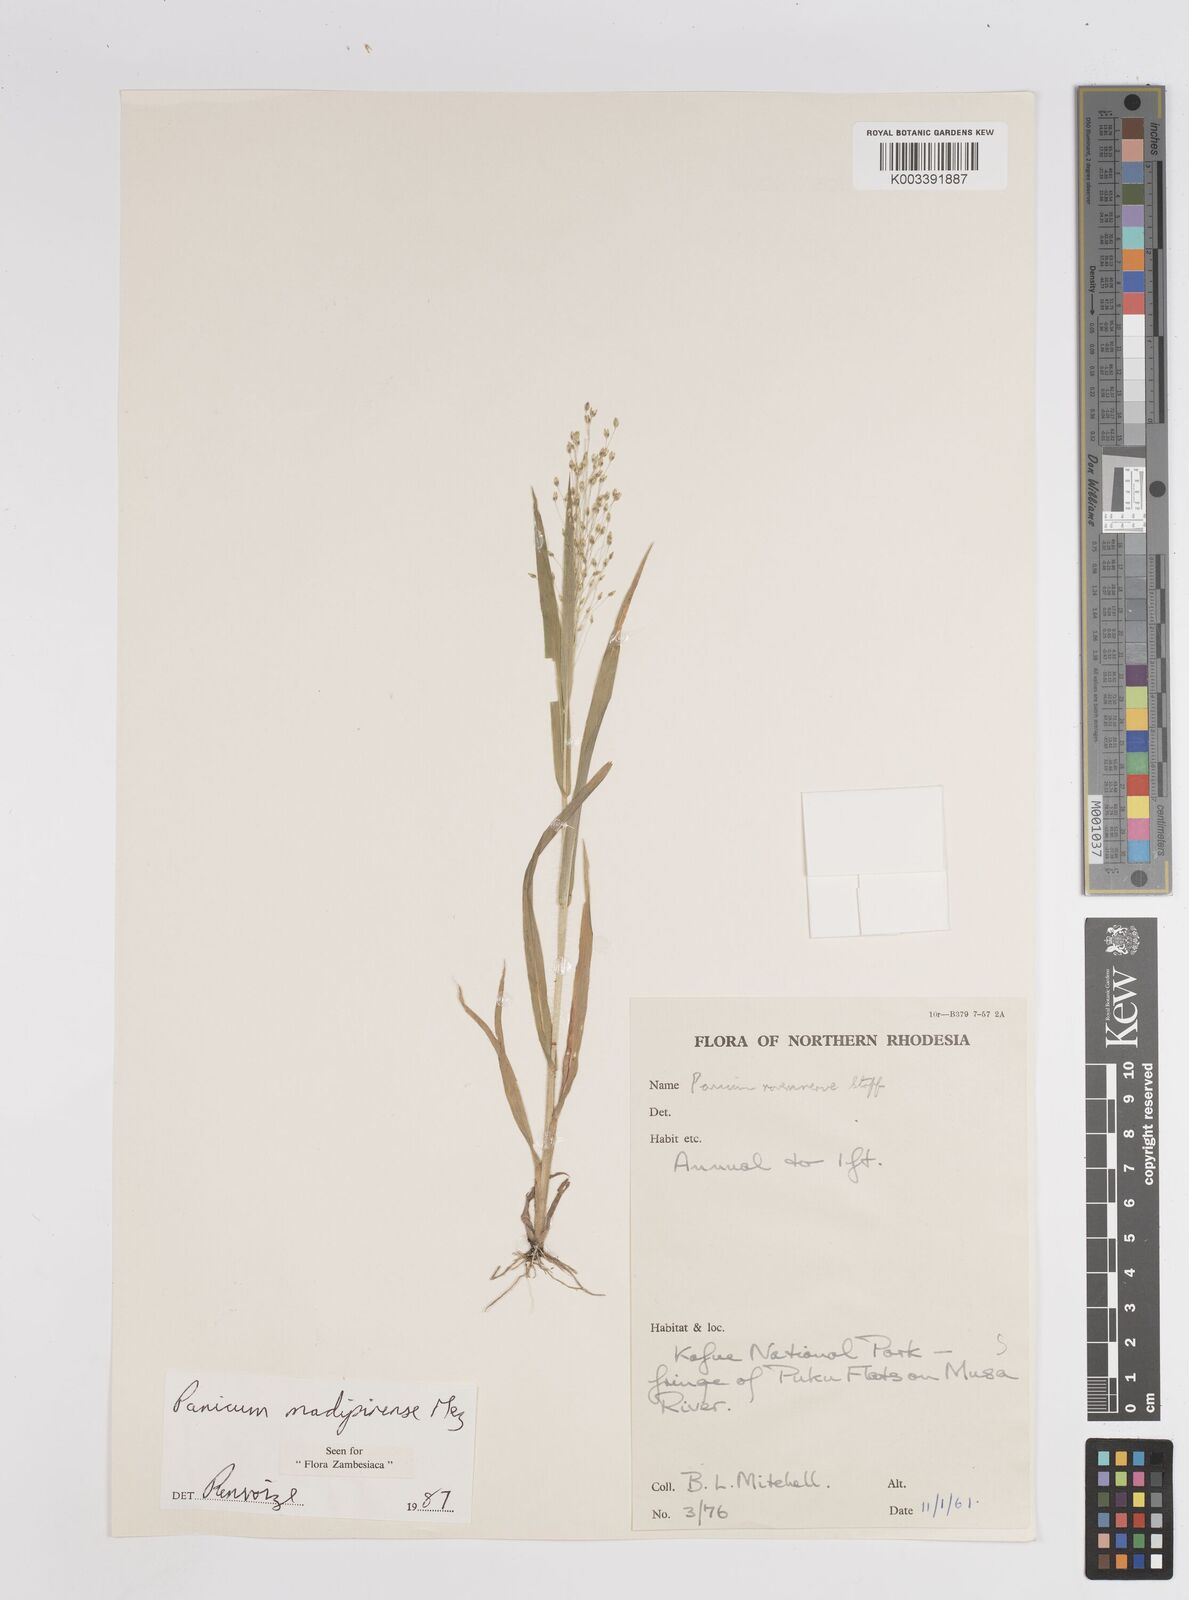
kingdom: Plantae
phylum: Tracheophyta
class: Liliopsida
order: Poales
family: Poaceae
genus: Panicum
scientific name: Panicum madipirense
